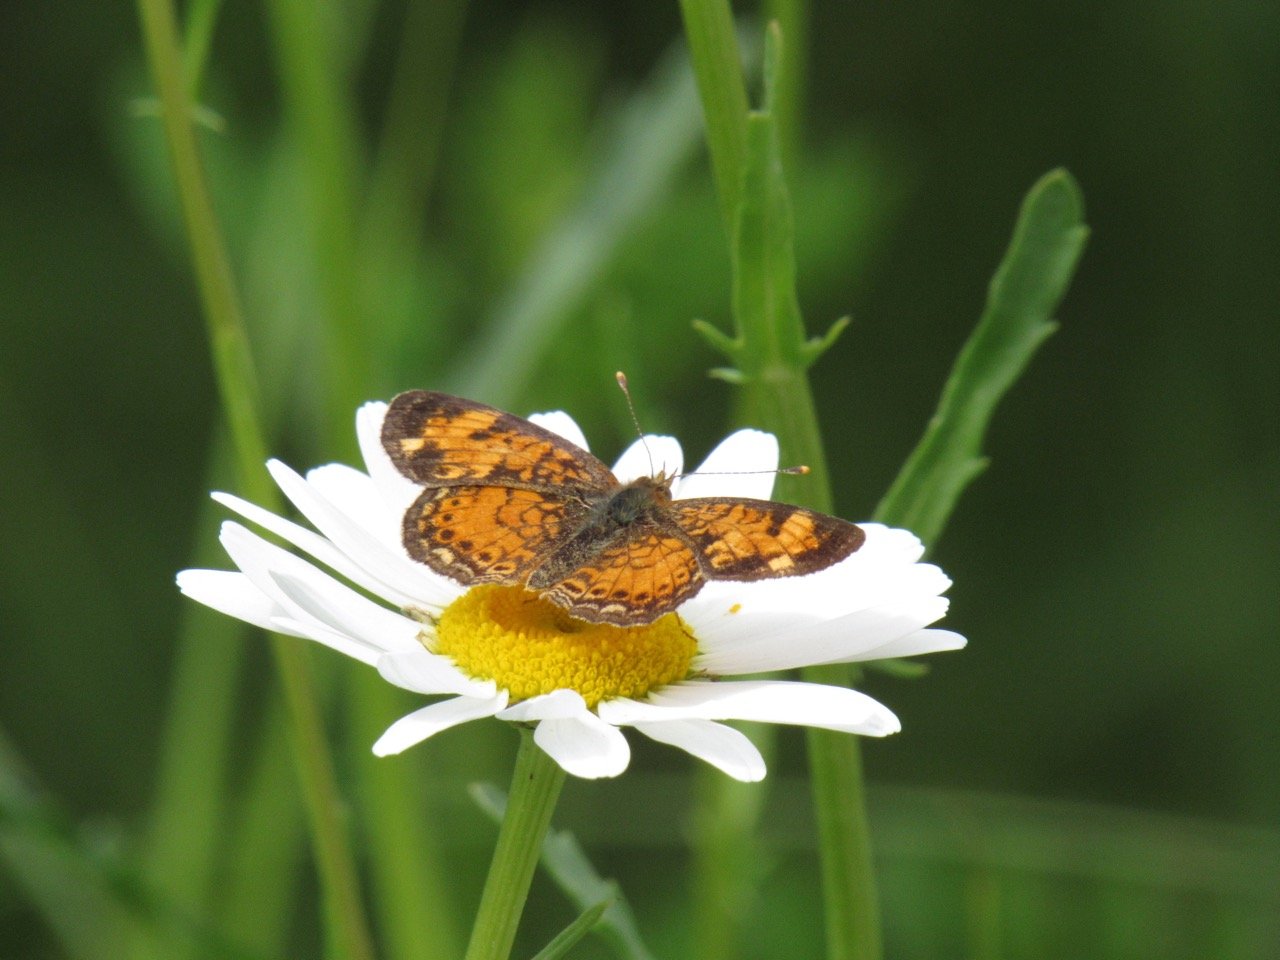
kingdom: Animalia
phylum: Arthropoda
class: Insecta
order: Lepidoptera
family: Nymphalidae
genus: Phyciodes
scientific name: Phyciodes
